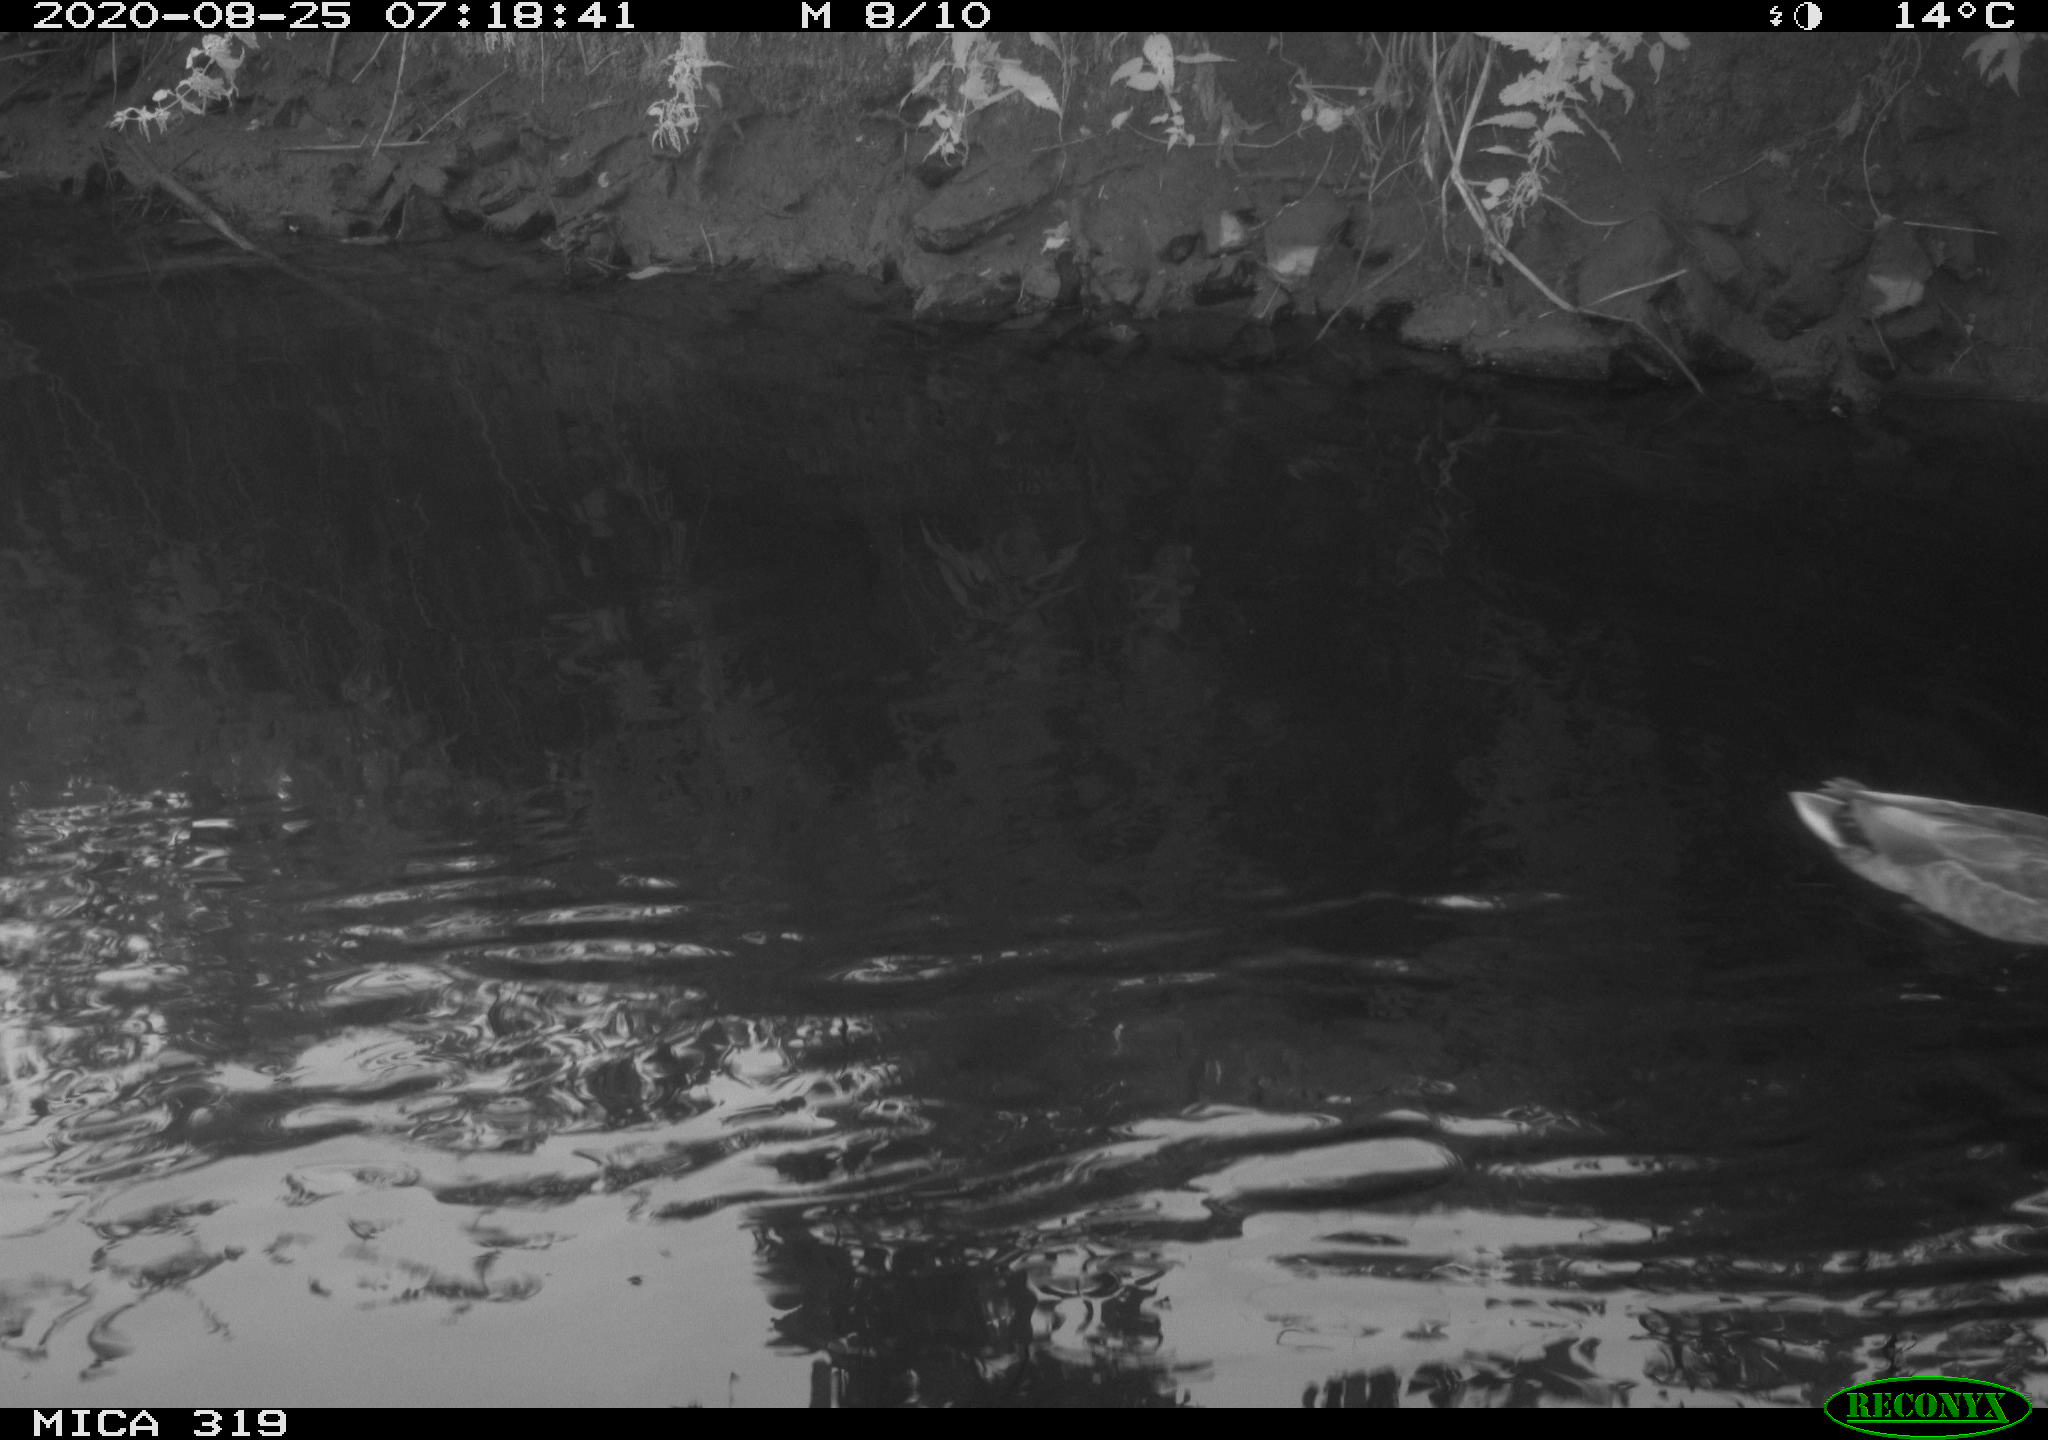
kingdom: Animalia
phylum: Chordata
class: Aves
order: Anseriformes
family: Anatidae
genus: Anas
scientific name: Anas platyrhynchos
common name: Mallard
